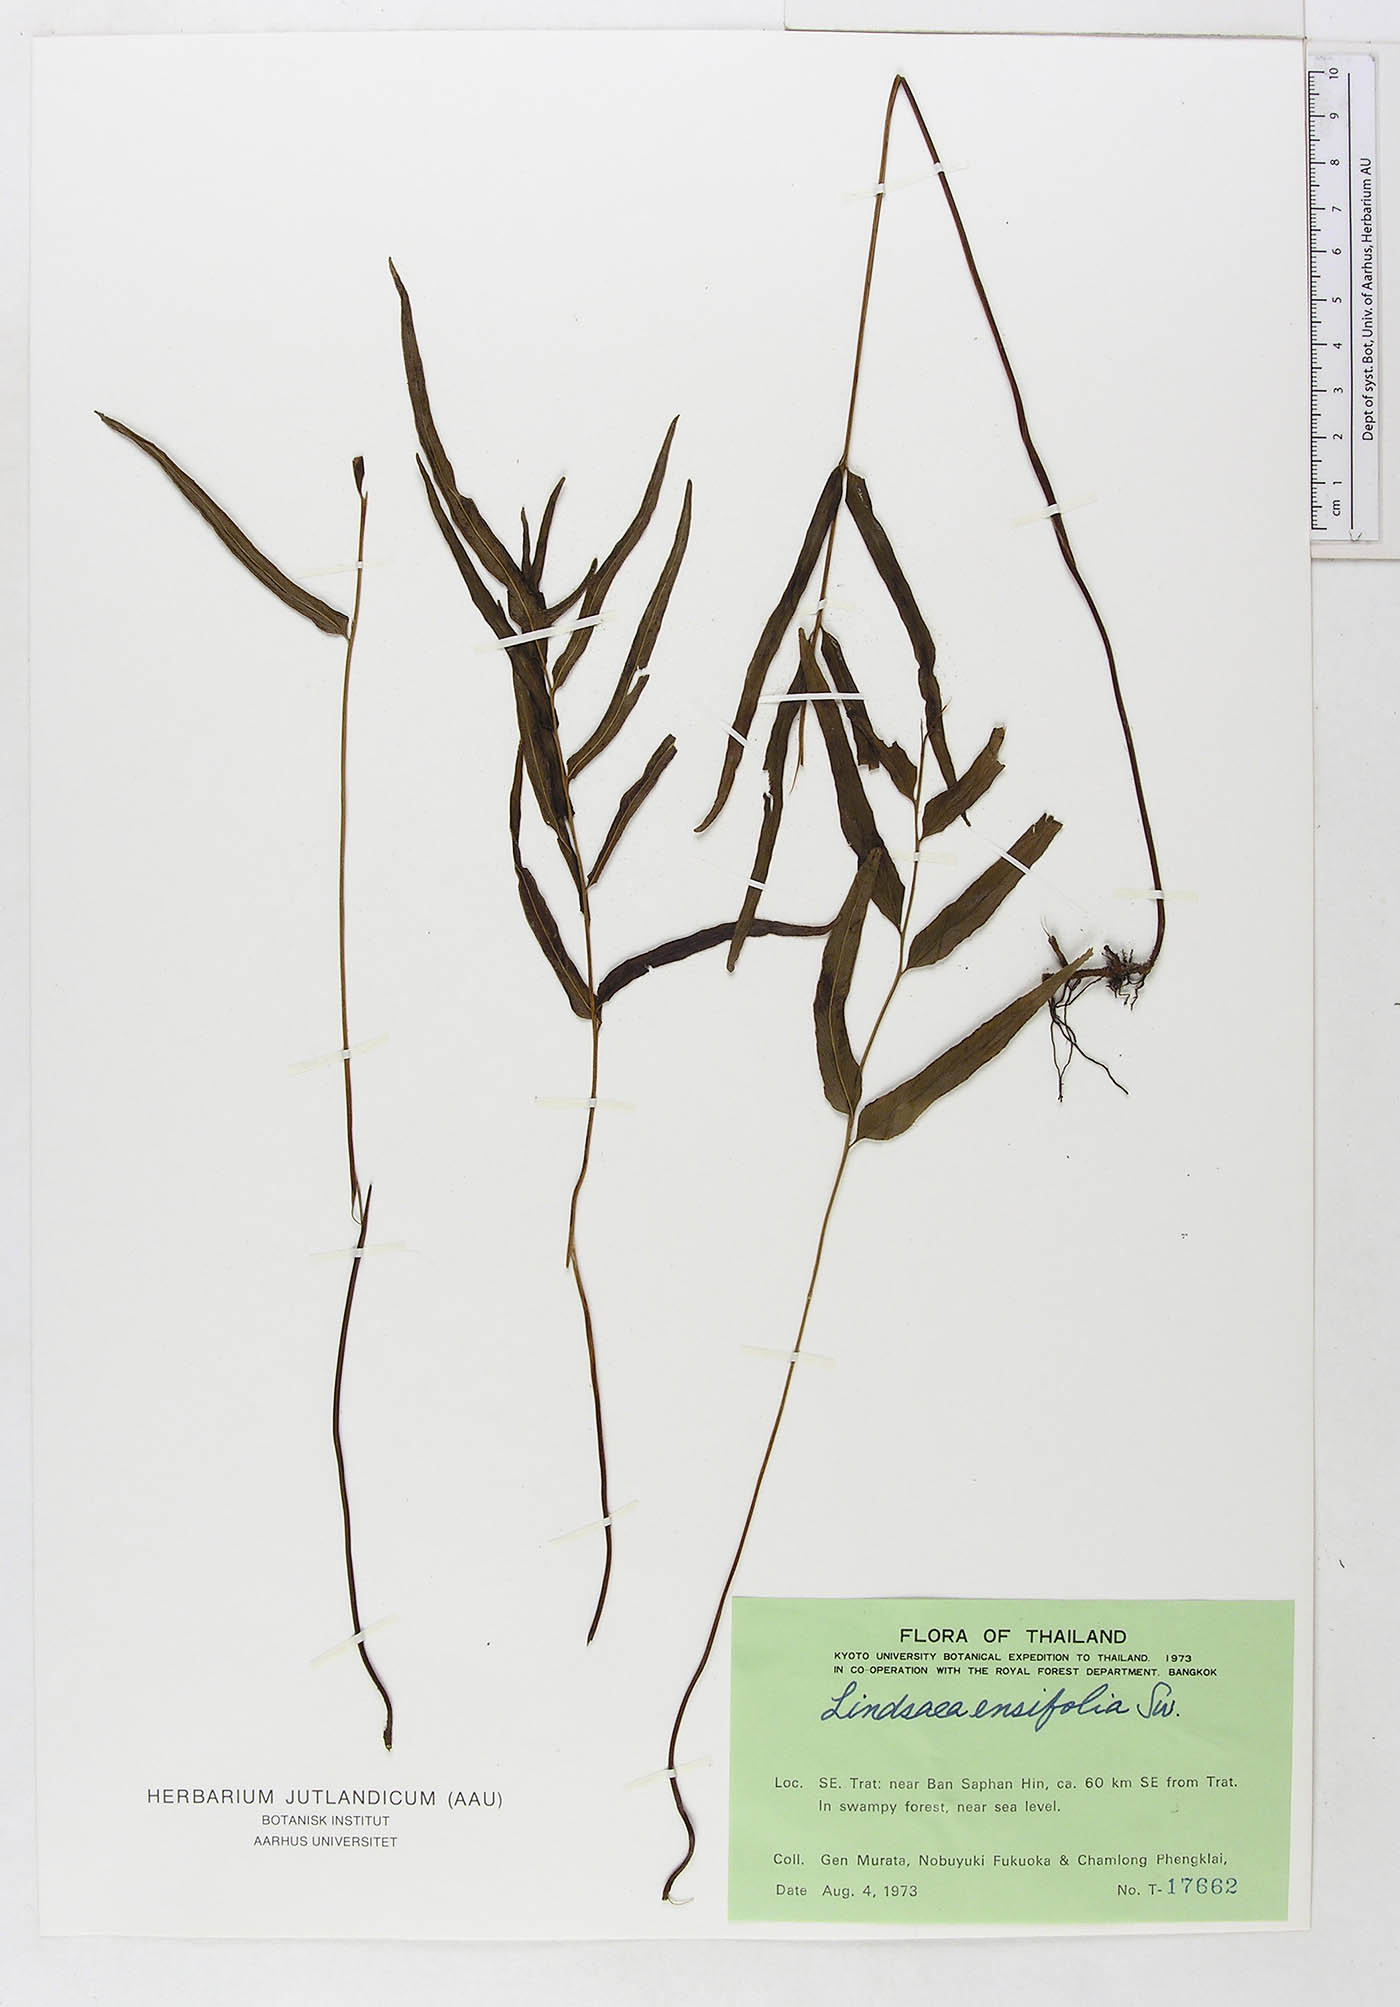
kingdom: Plantae
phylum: Tracheophyta
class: Polypodiopsida
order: Polypodiales
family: Lindsaeaceae
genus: Lindsaea
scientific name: Lindsaea ensifolia
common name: Graceful necklace fern
